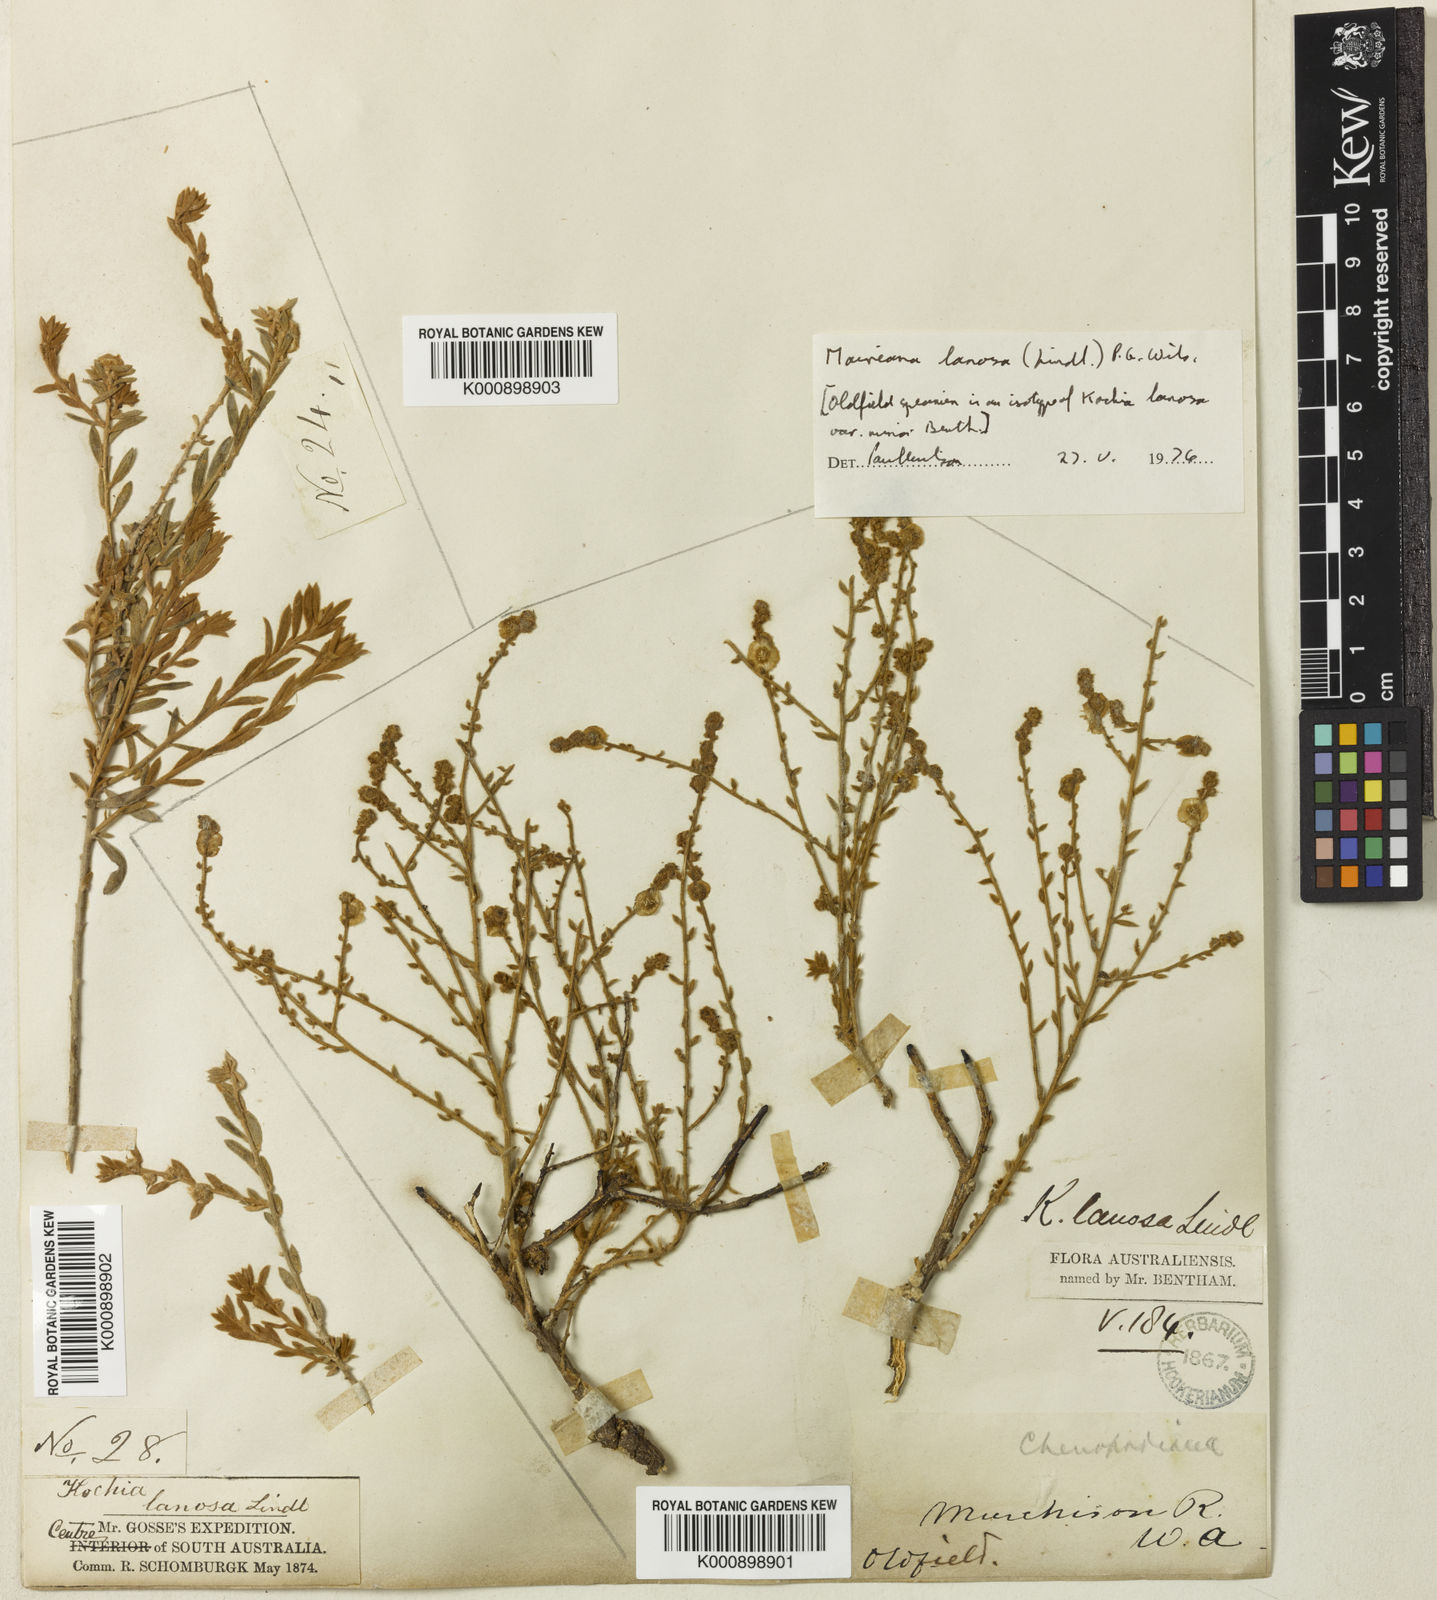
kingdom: Plantae
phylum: Tracheophyta
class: Magnoliopsida
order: Caryophyllales
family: Amaranthaceae
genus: Maireana
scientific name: Maireana lanosa
